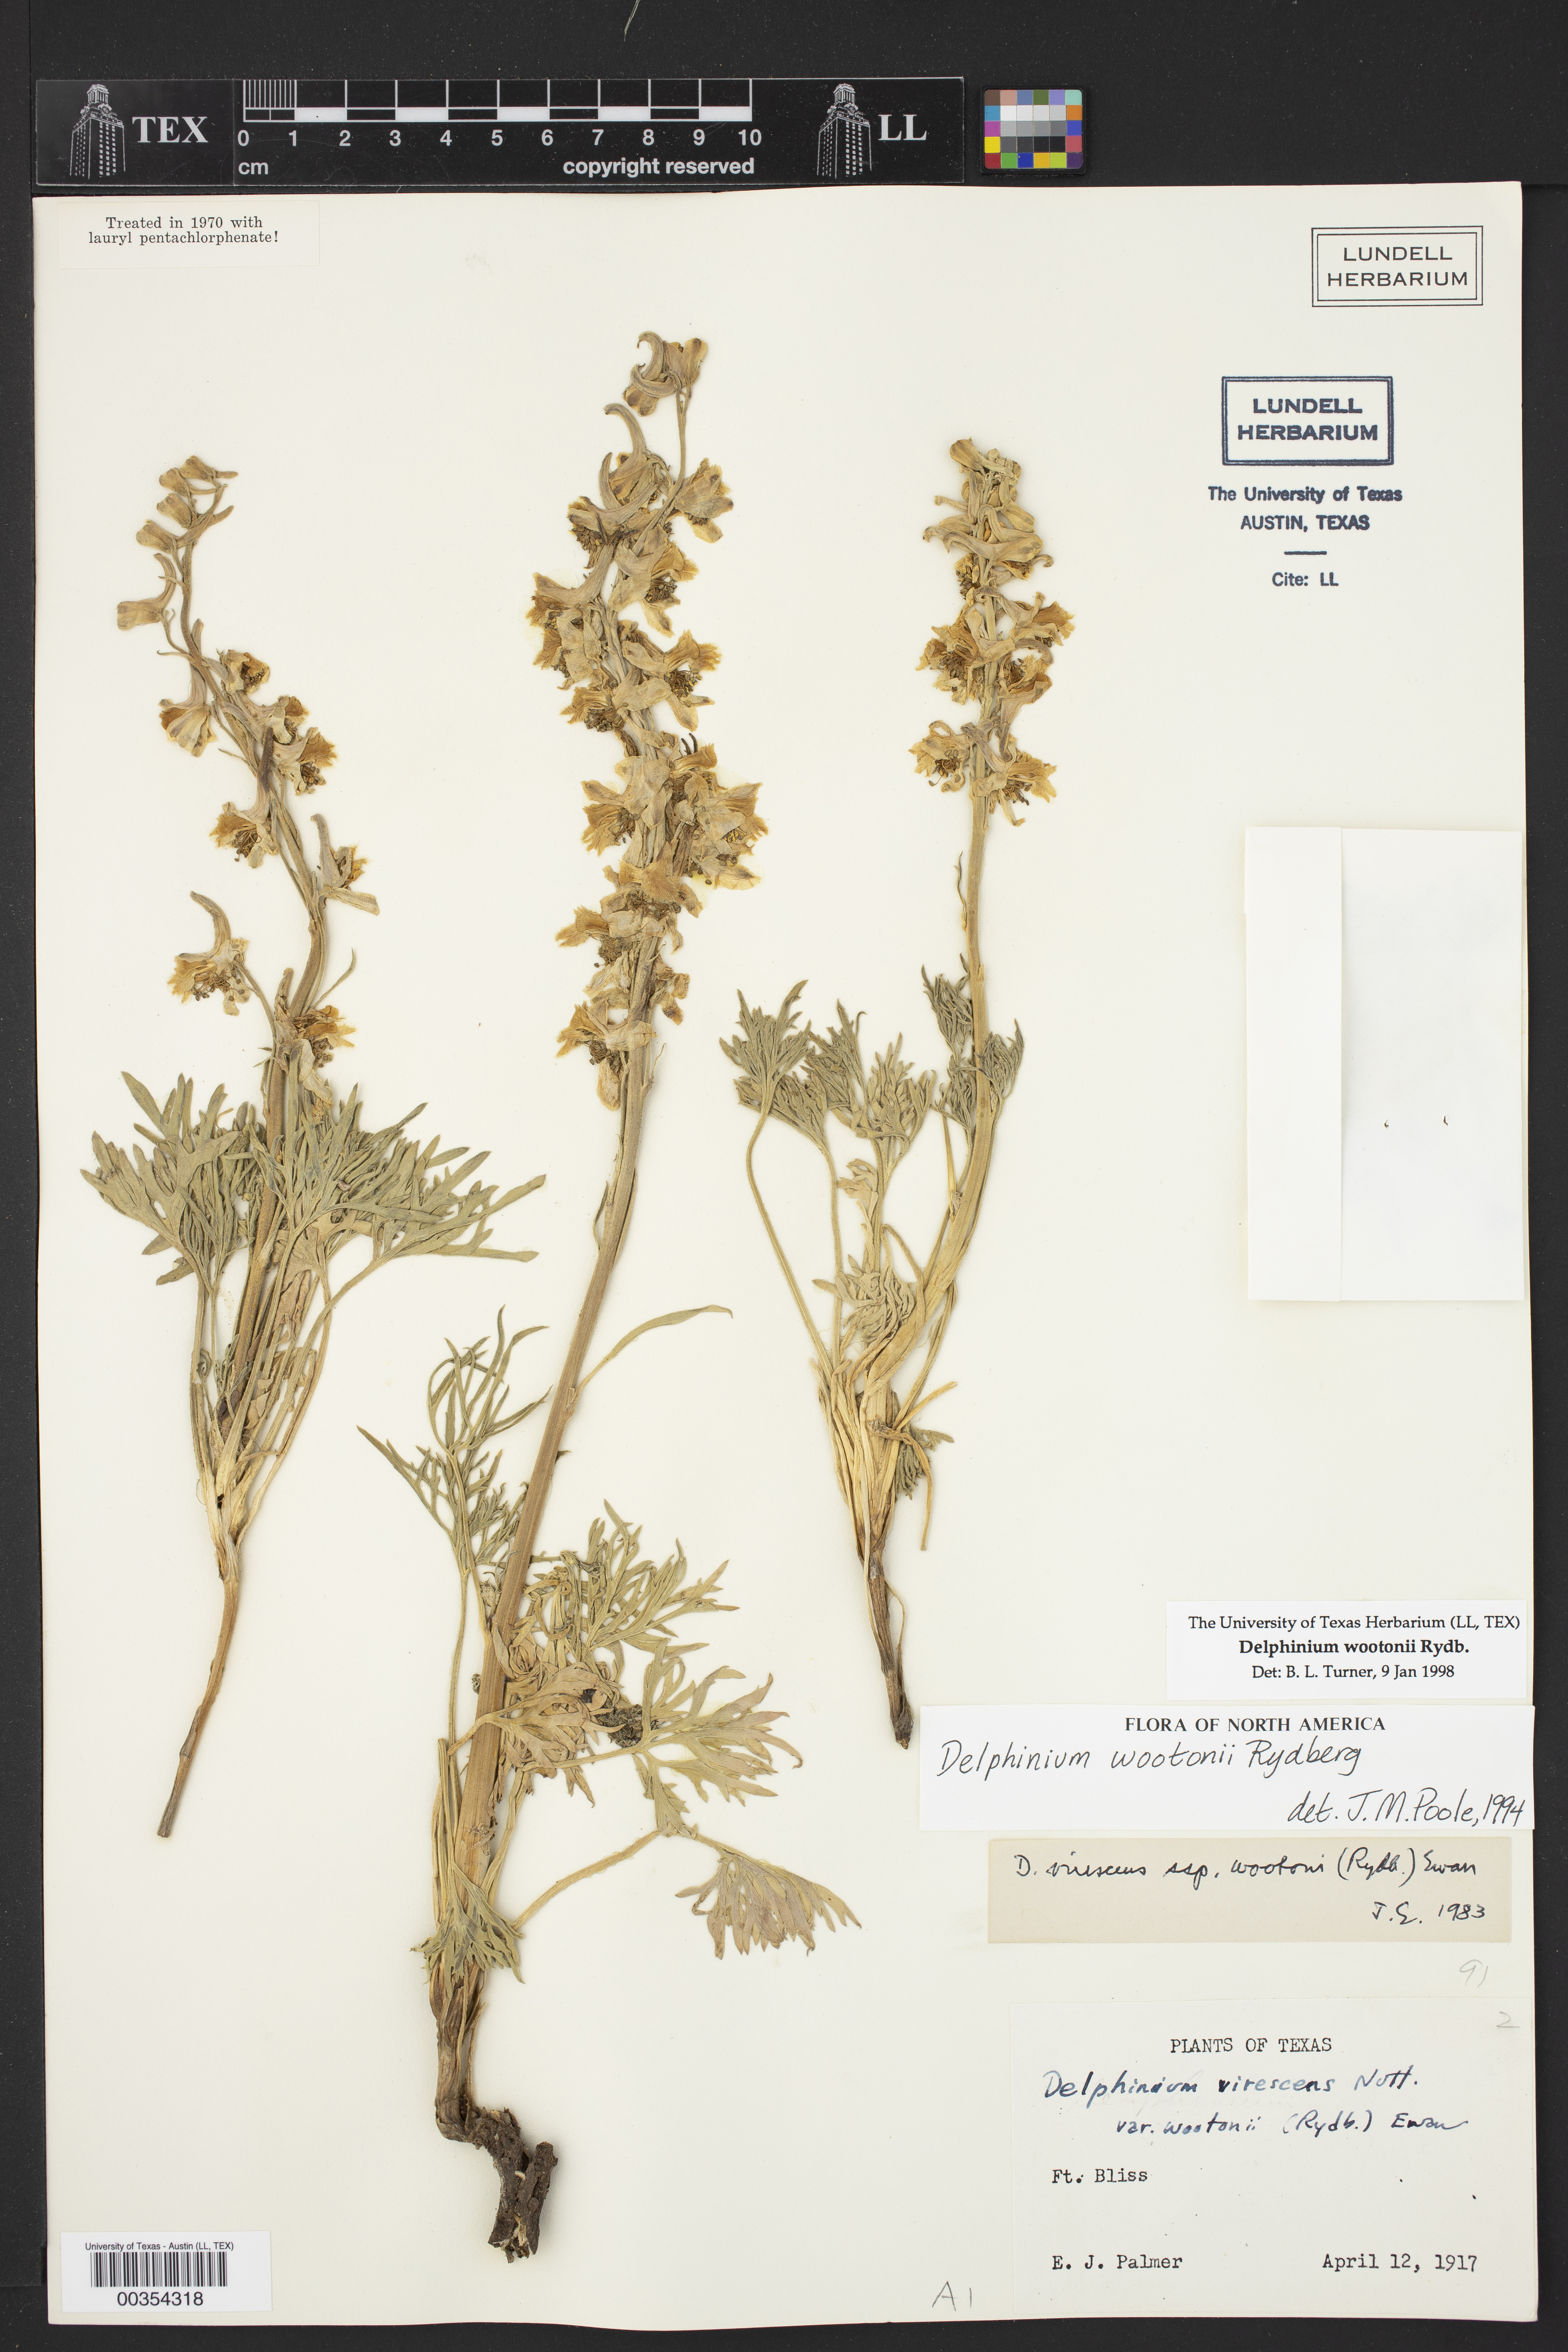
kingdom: Plantae
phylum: Tracheophyta
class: Magnoliopsida
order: Ranunculales
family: Ranunculaceae
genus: Delphinium
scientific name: Delphinium wootonii
